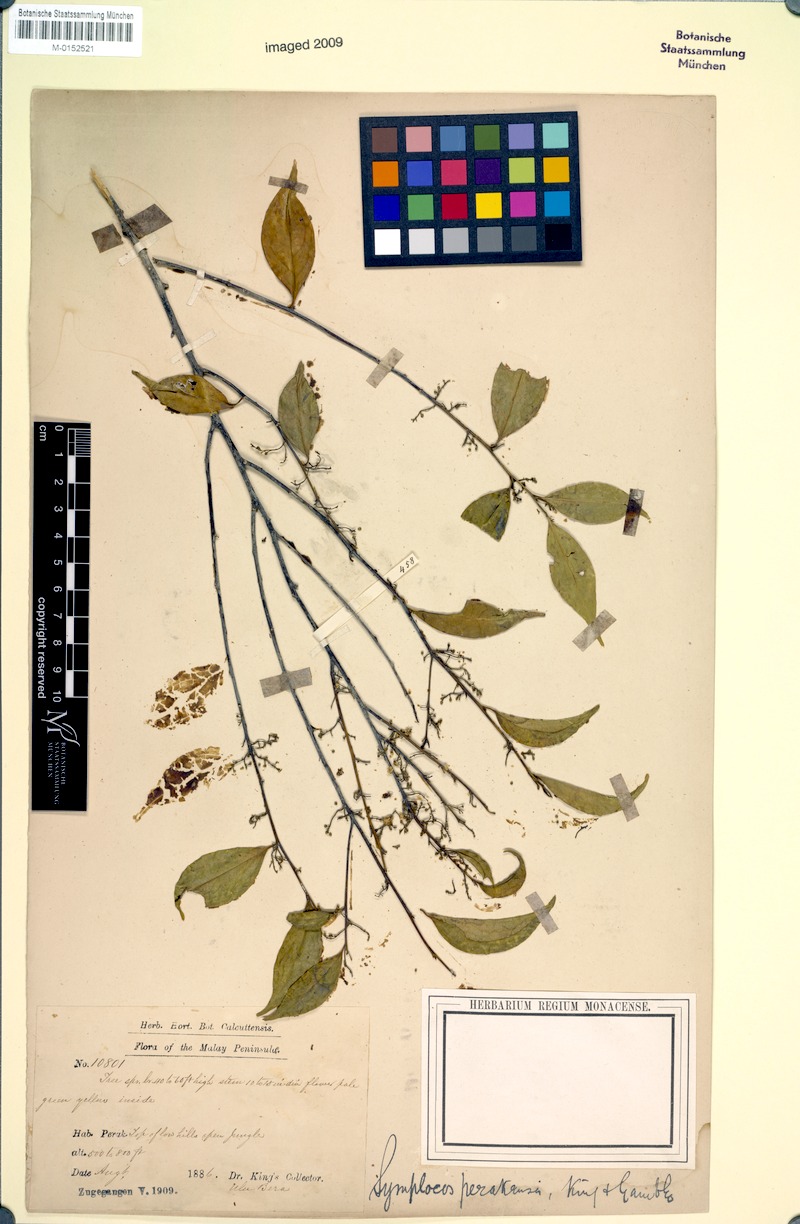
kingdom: Plantae
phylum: Tracheophyta
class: Magnoliopsida
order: Ericales
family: Symplocaceae
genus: Symplocos
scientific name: Symplocos ophirensis
